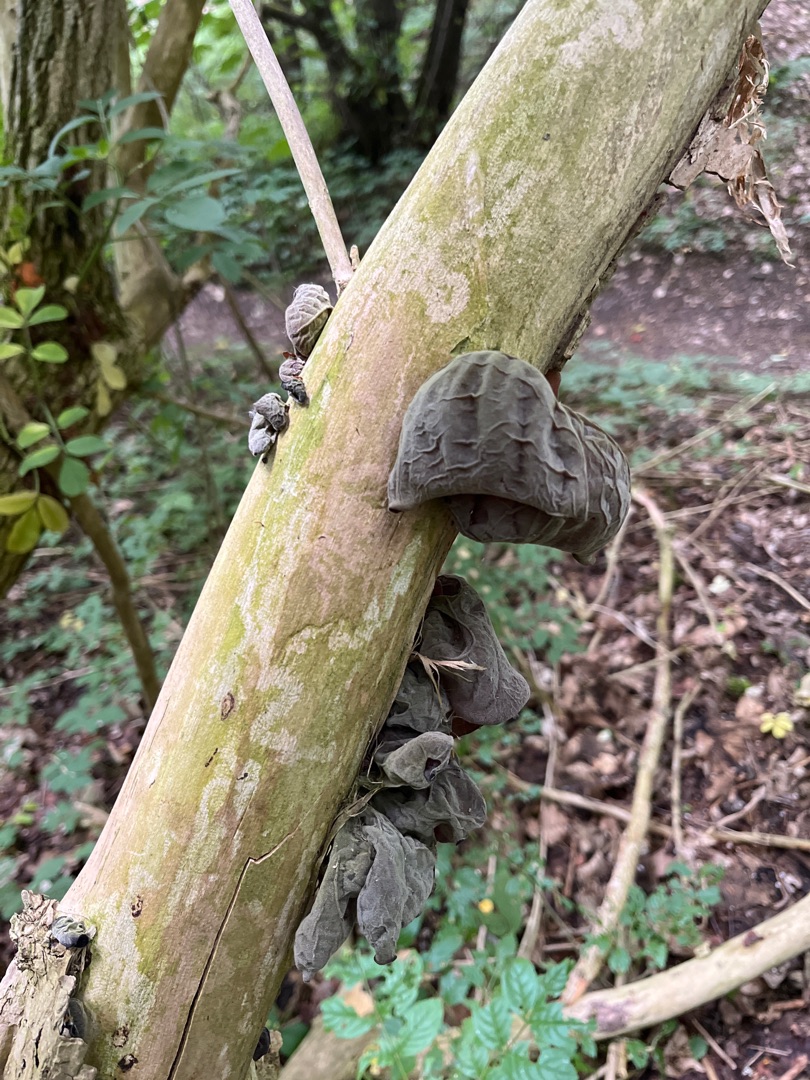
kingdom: Fungi
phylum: Basidiomycota
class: Agaricomycetes
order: Auriculariales
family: Auriculariaceae
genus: Auricularia
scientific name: Auricularia auricula-judae
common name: Almindelig judasøre
